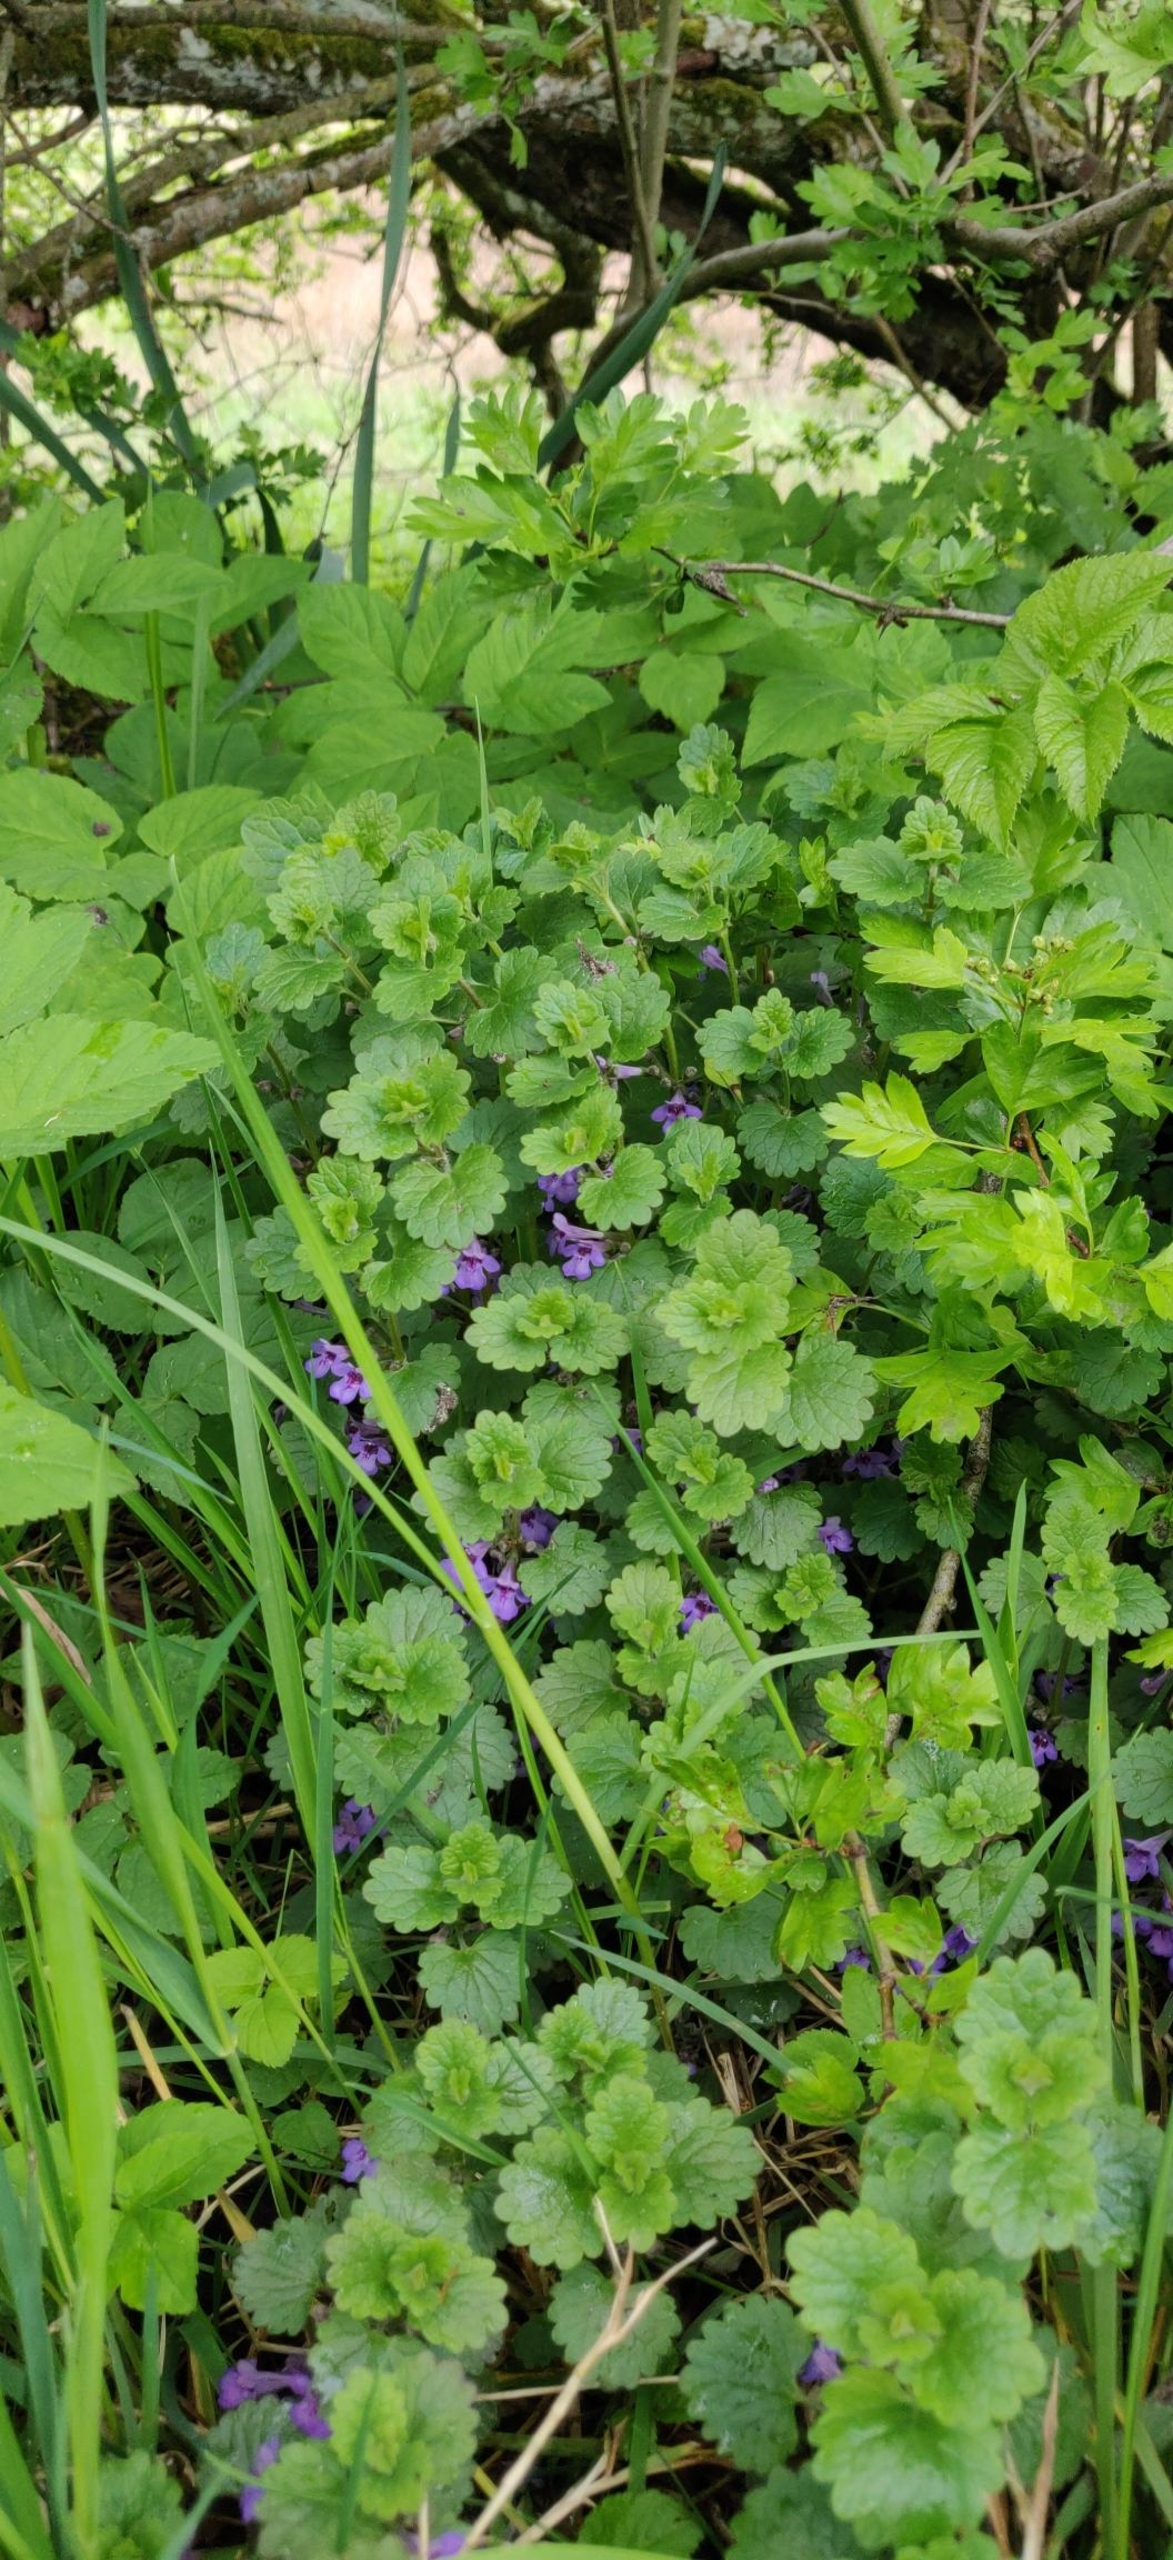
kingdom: Plantae
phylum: Tracheophyta
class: Magnoliopsida
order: Lamiales
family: Lamiaceae
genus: Glechoma
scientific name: Glechoma hederacea
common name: Korsknap
